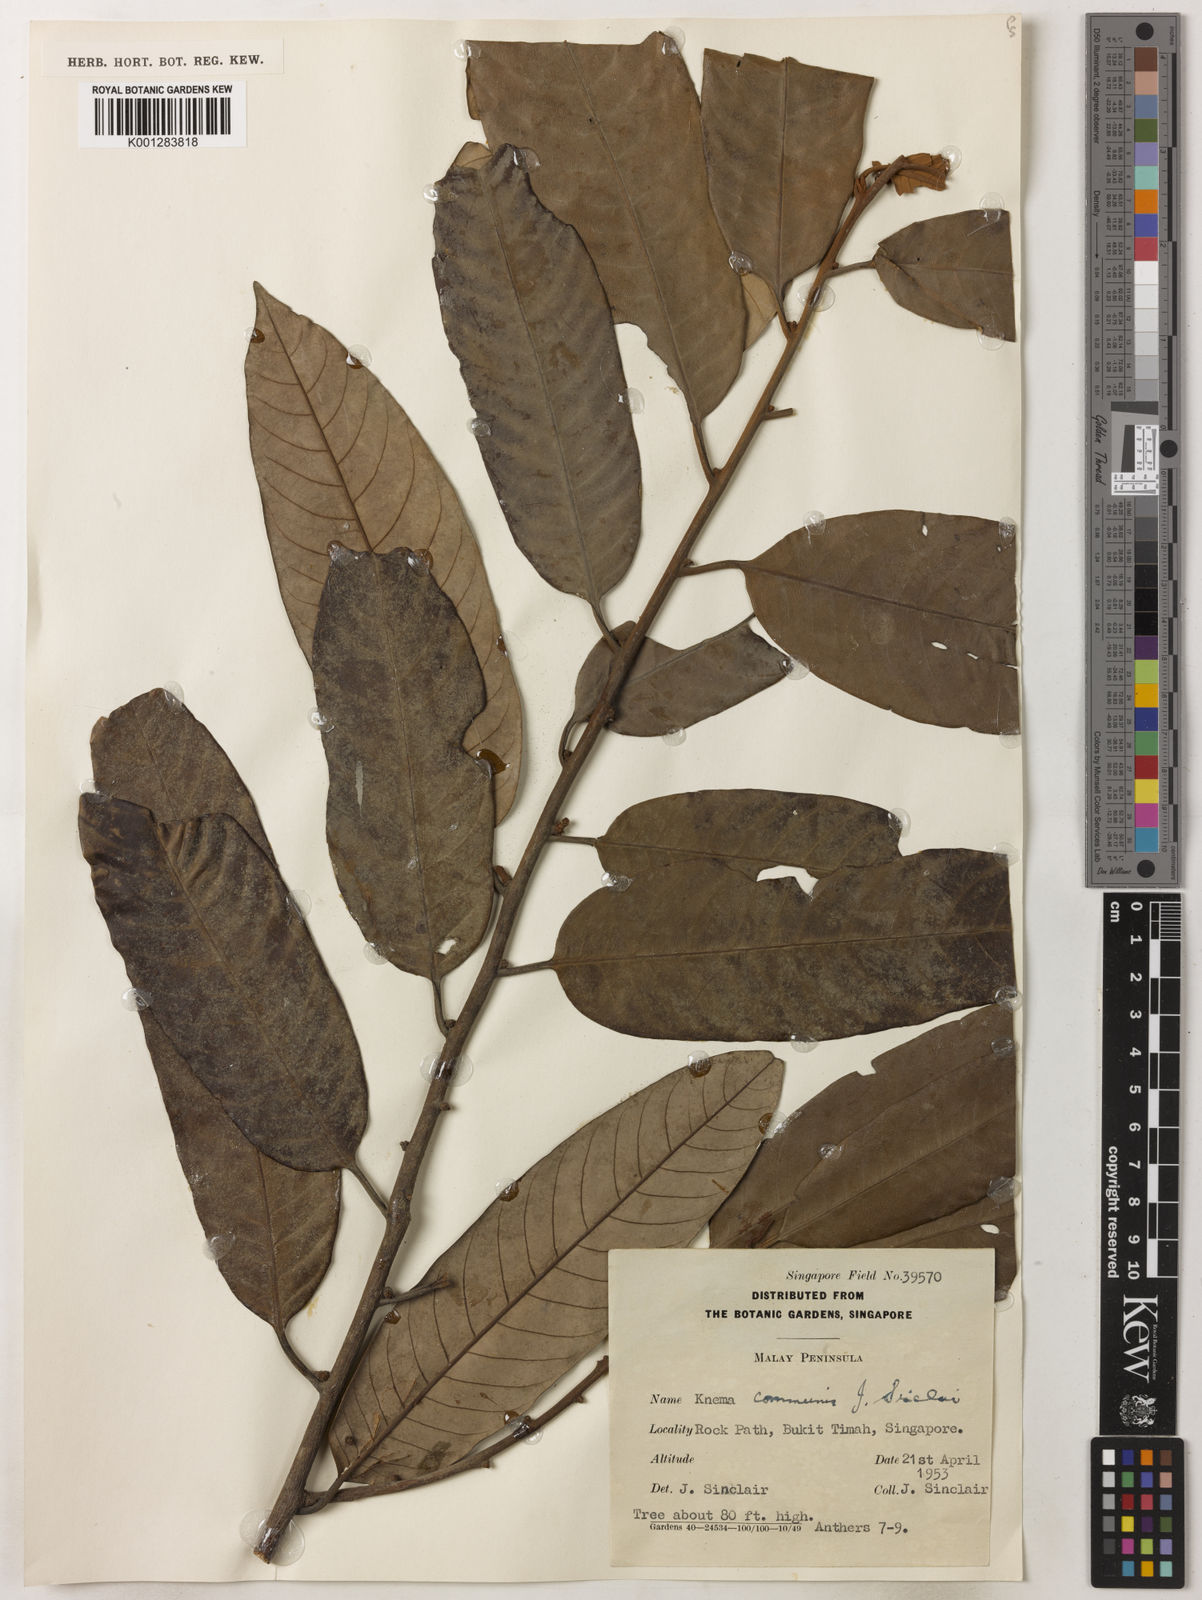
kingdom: Plantae
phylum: Tracheophyta
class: Magnoliopsida
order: Magnoliales
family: Myristicaceae
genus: Knema
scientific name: Knema communis
